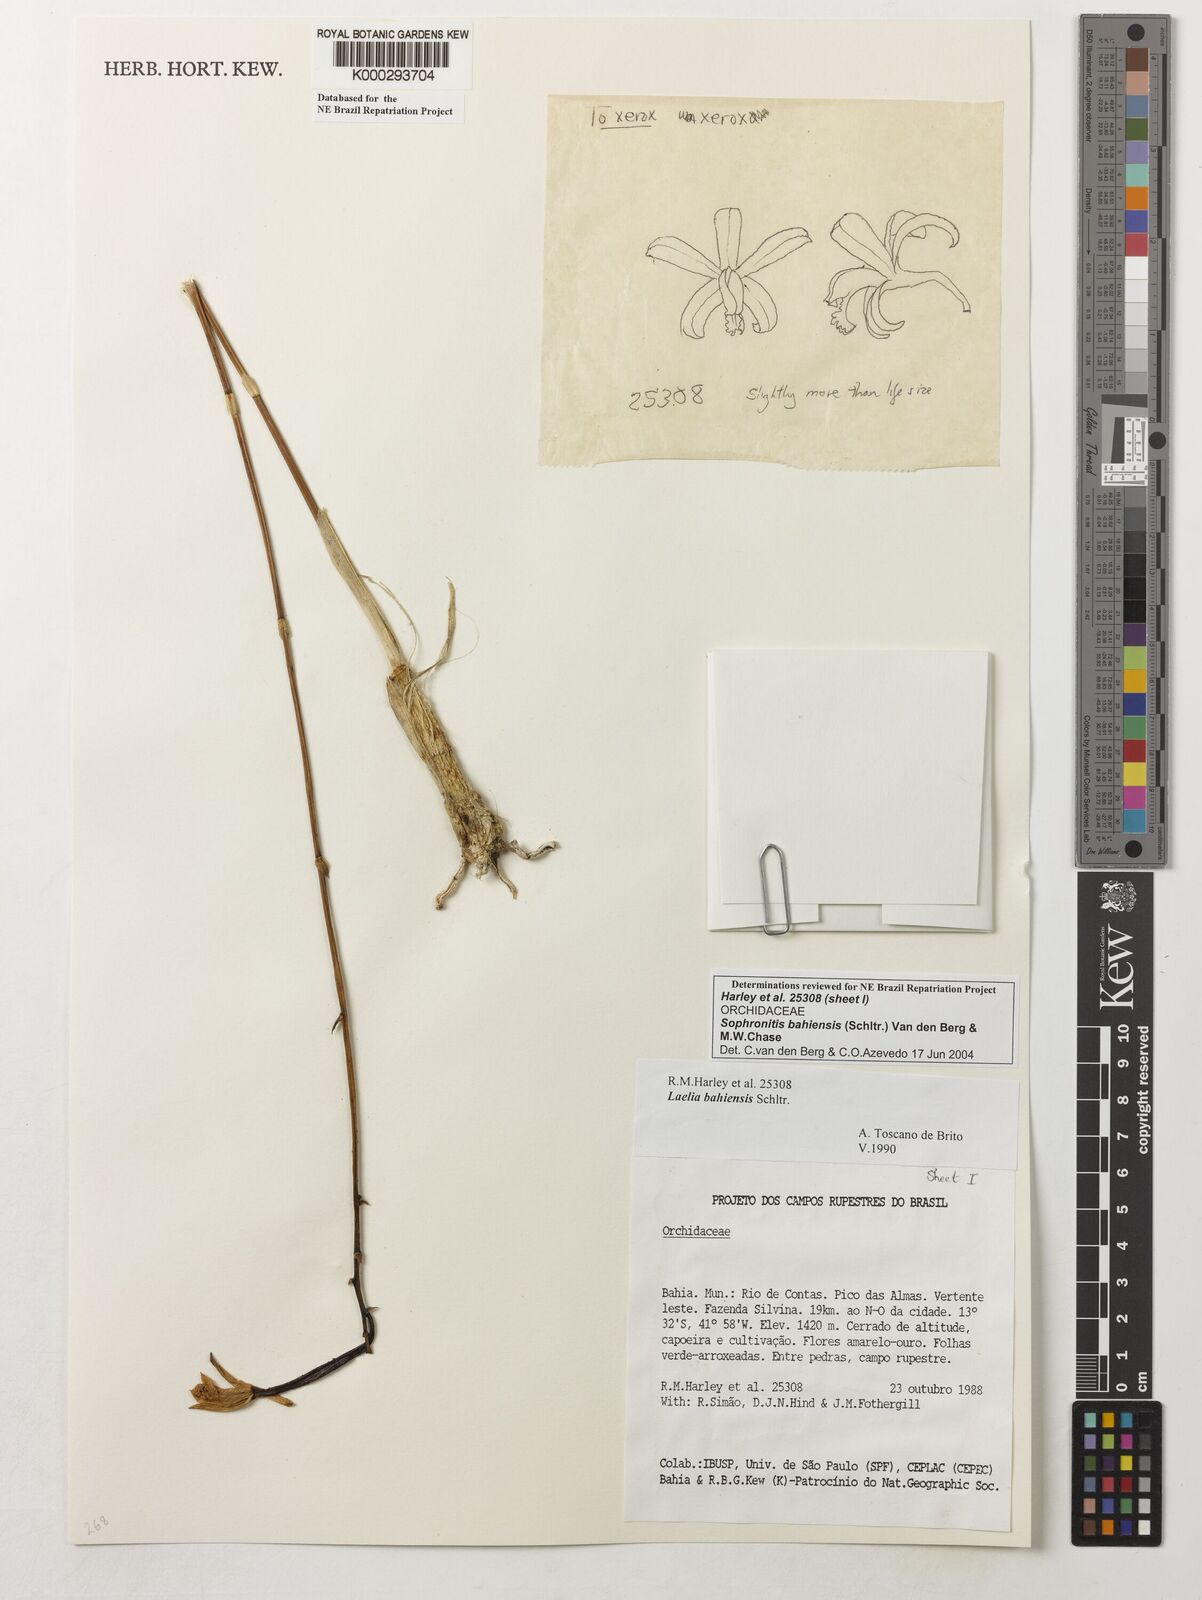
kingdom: Plantae
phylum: Tracheophyta
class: Liliopsida
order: Asparagales
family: Orchidaceae
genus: Cattleya
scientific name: Cattleya luetzelburgii
